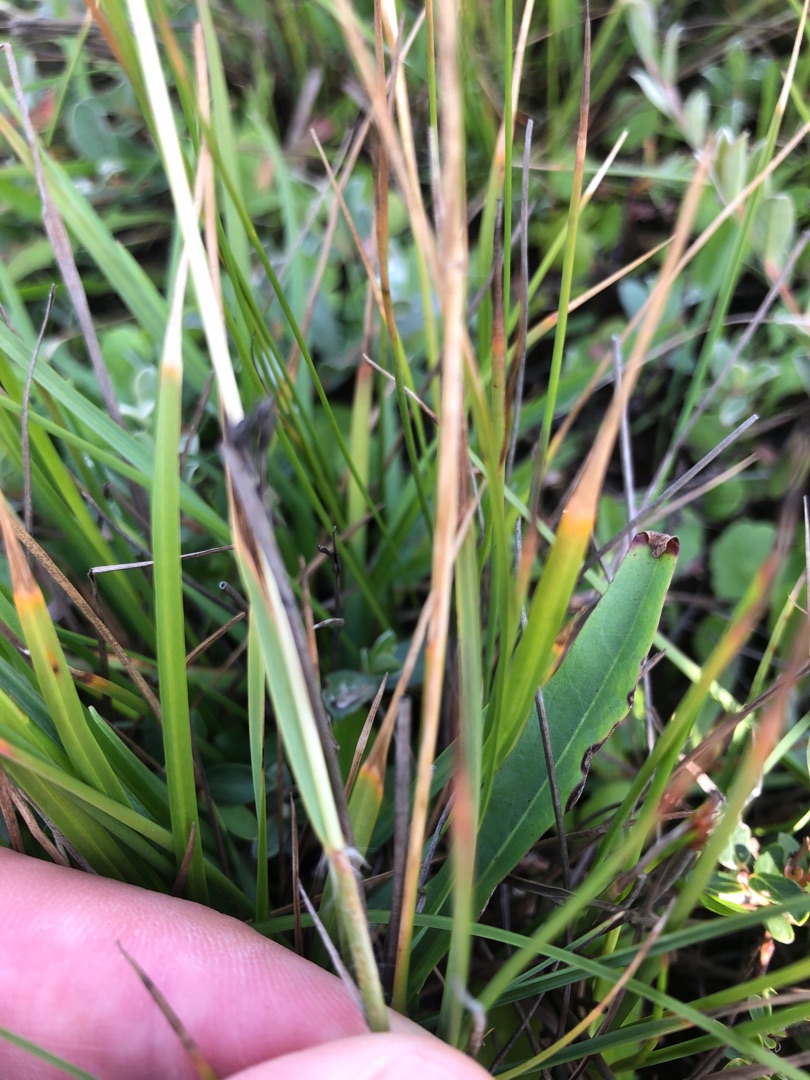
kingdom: Plantae
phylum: Tracheophyta
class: Liliopsida
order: Poales
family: Poaceae
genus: Danthonia
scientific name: Danthonia decumbens
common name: Tandbælg
